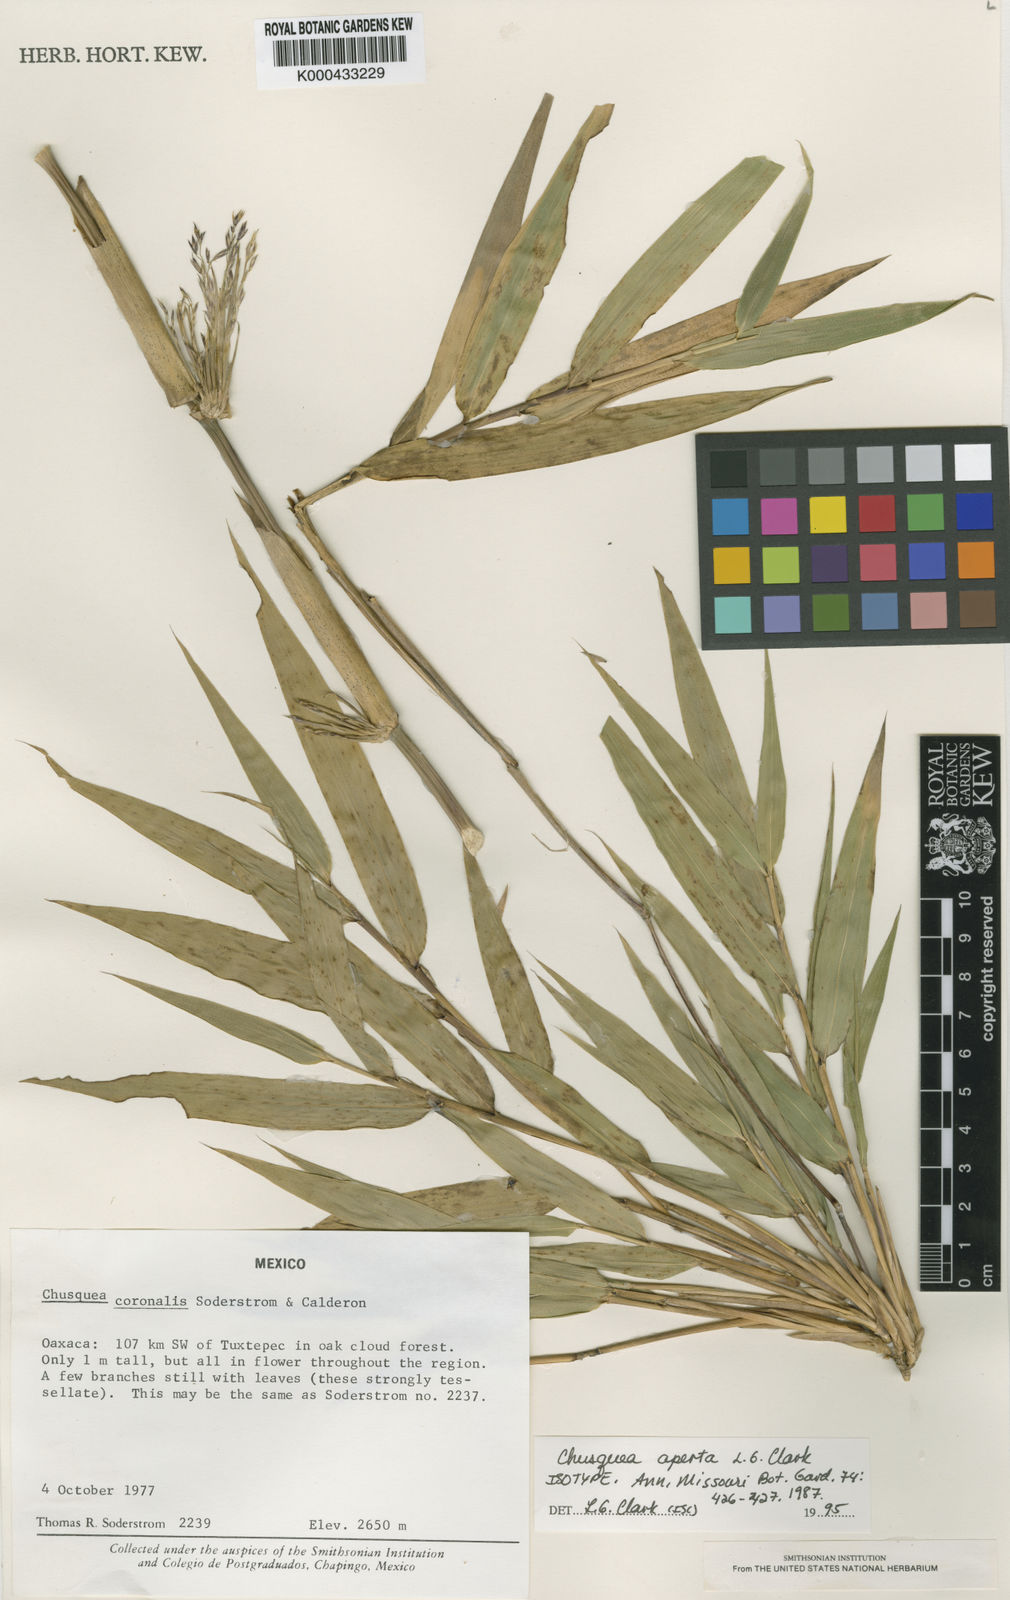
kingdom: Plantae
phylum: Tracheophyta
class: Liliopsida
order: Poales
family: Poaceae
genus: Chusquea
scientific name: Chusquea aperta
